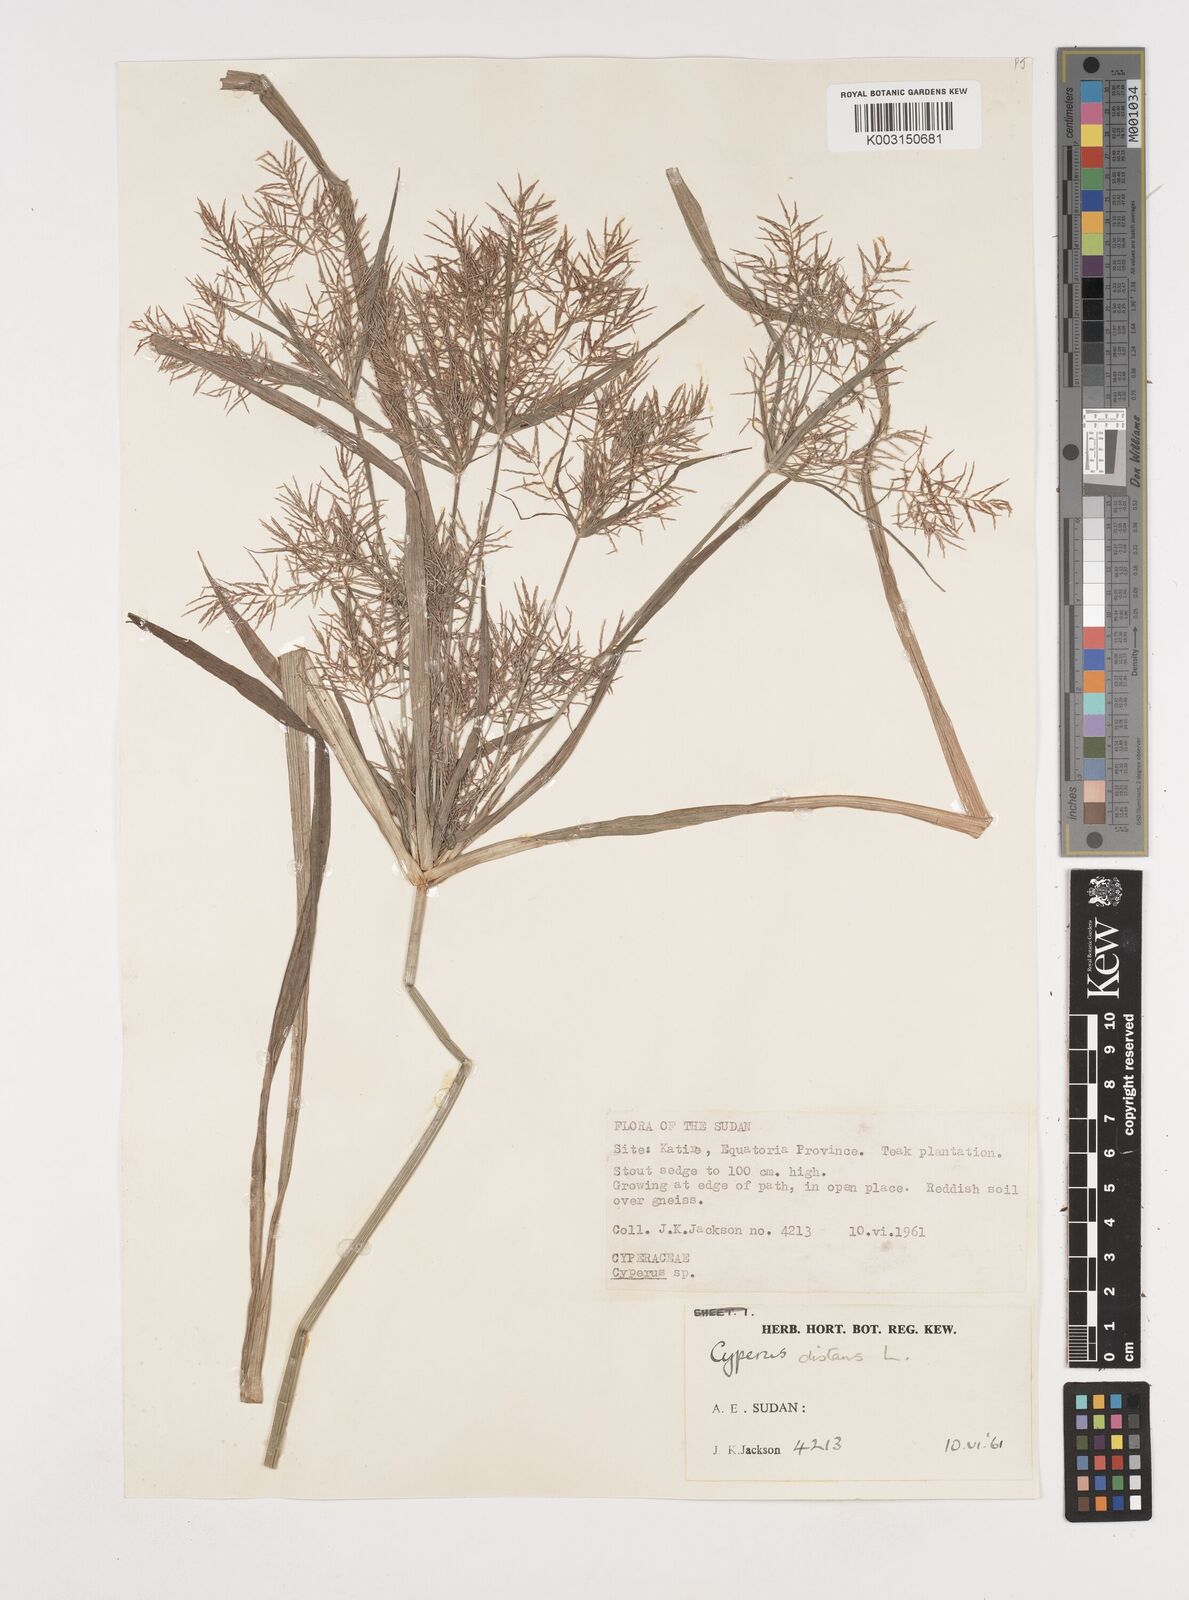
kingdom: Plantae
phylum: Tracheophyta
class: Liliopsida
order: Poales
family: Cyperaceae
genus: Cyperus
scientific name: Cyperus distans
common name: Slender cyperus
